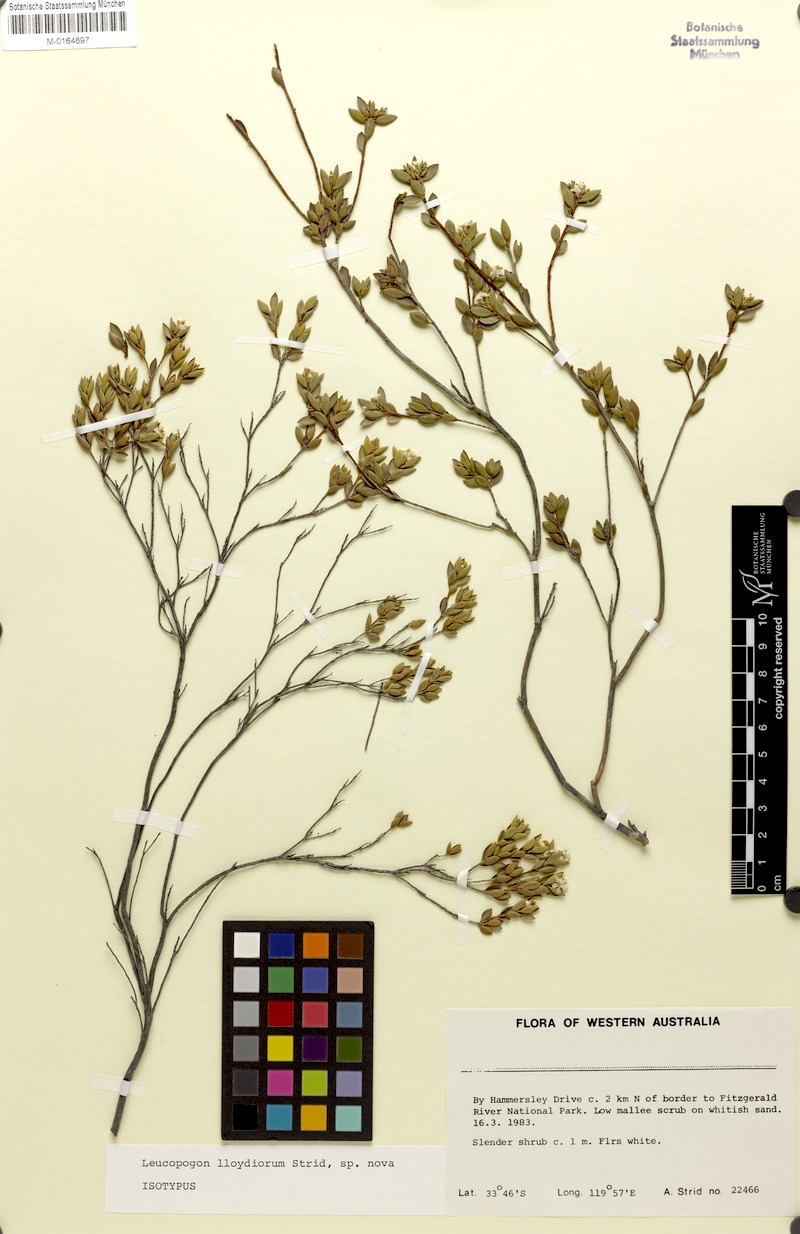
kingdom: Plantae
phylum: Tracheophyta
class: Magnoliopsida
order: Ericales
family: Ericaceae
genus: Leucopogon
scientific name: Leucopogon lloydiorum
